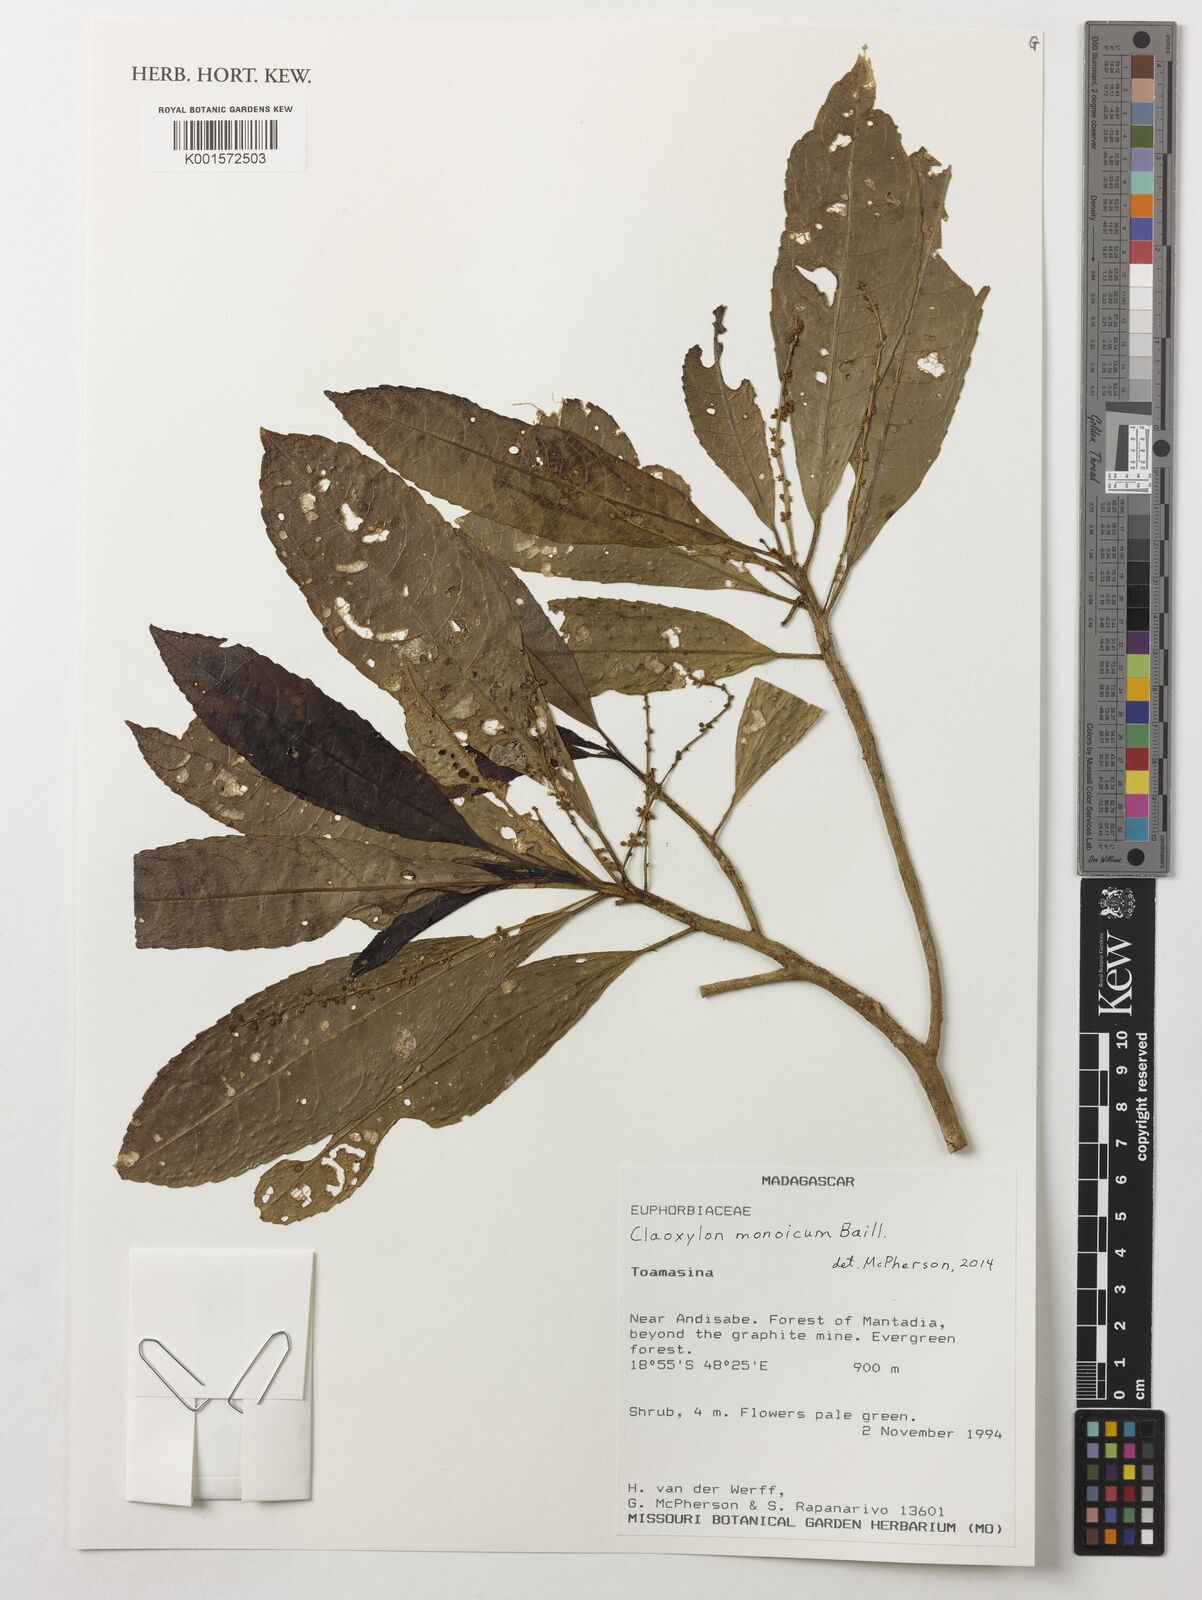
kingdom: Plantae
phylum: Tracheophyta
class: Magnoliopsida
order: Malpighiales
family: Euphorbiaceae
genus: Claoxylon
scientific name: Claoxylon monoicum
